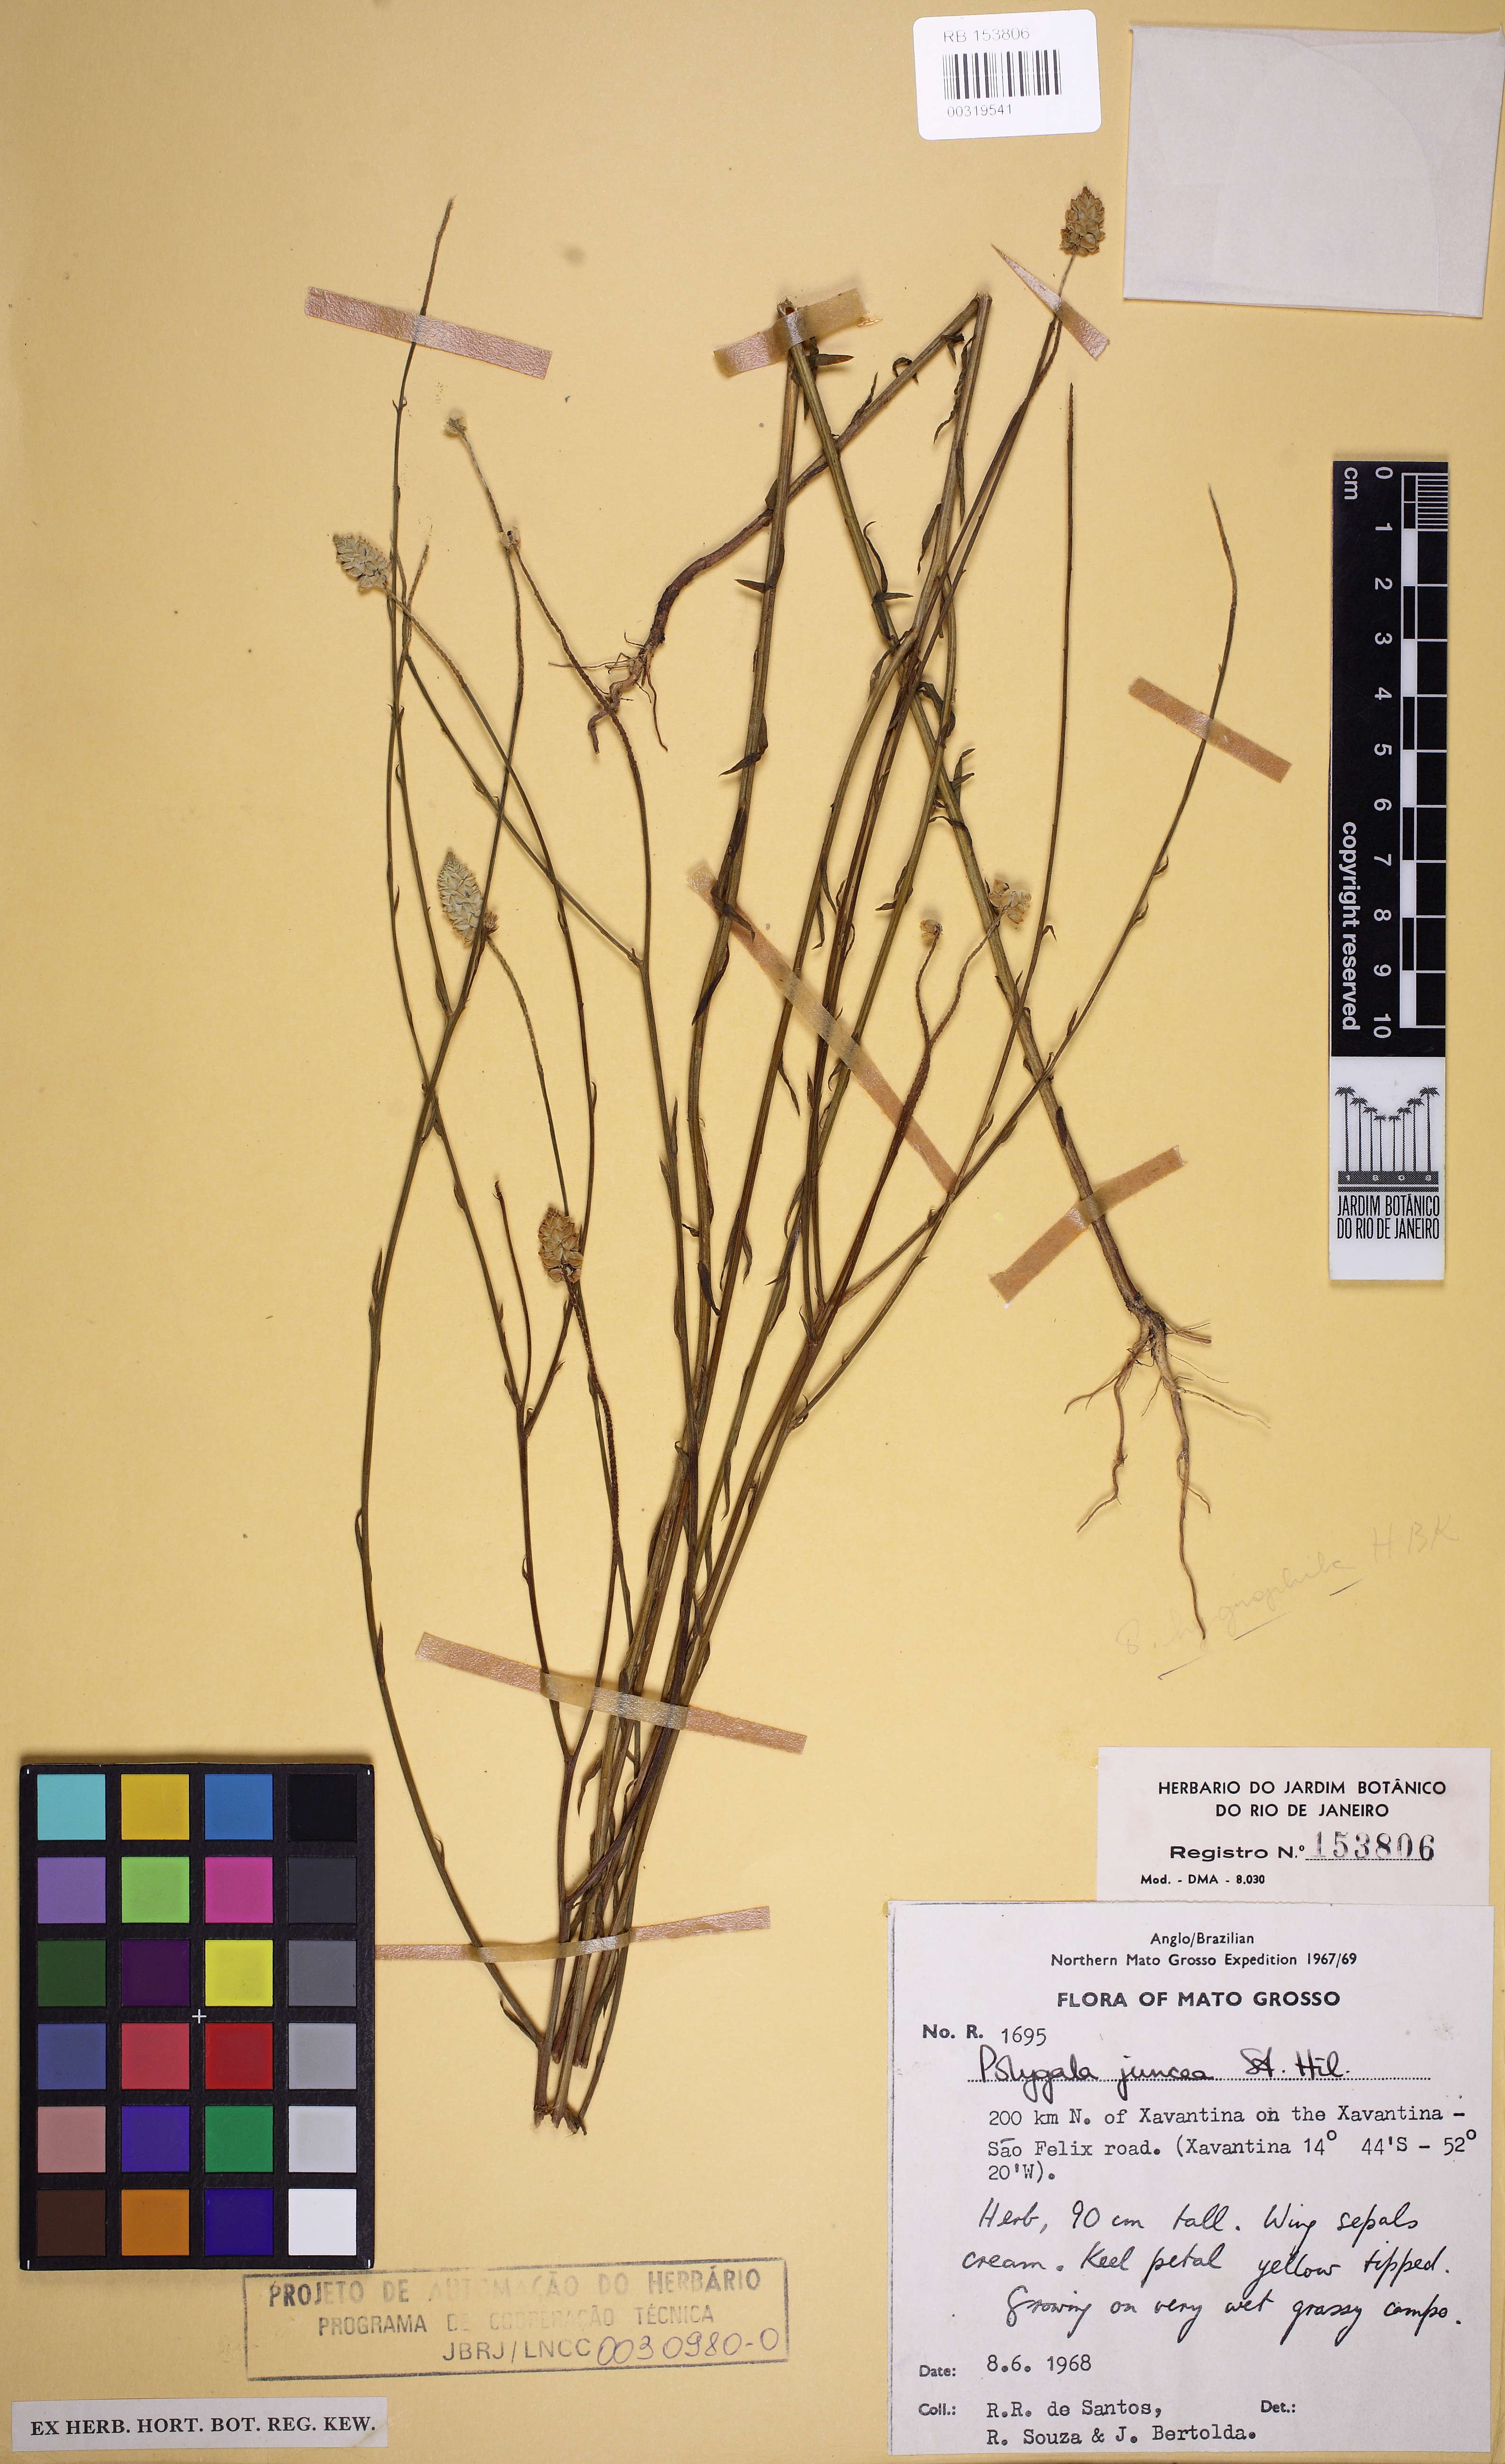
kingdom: Plantae
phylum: Tracheophyta
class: Magnoliopsida
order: Fabales
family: Polygalaceae
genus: Polygala
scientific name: Polygala juncea
